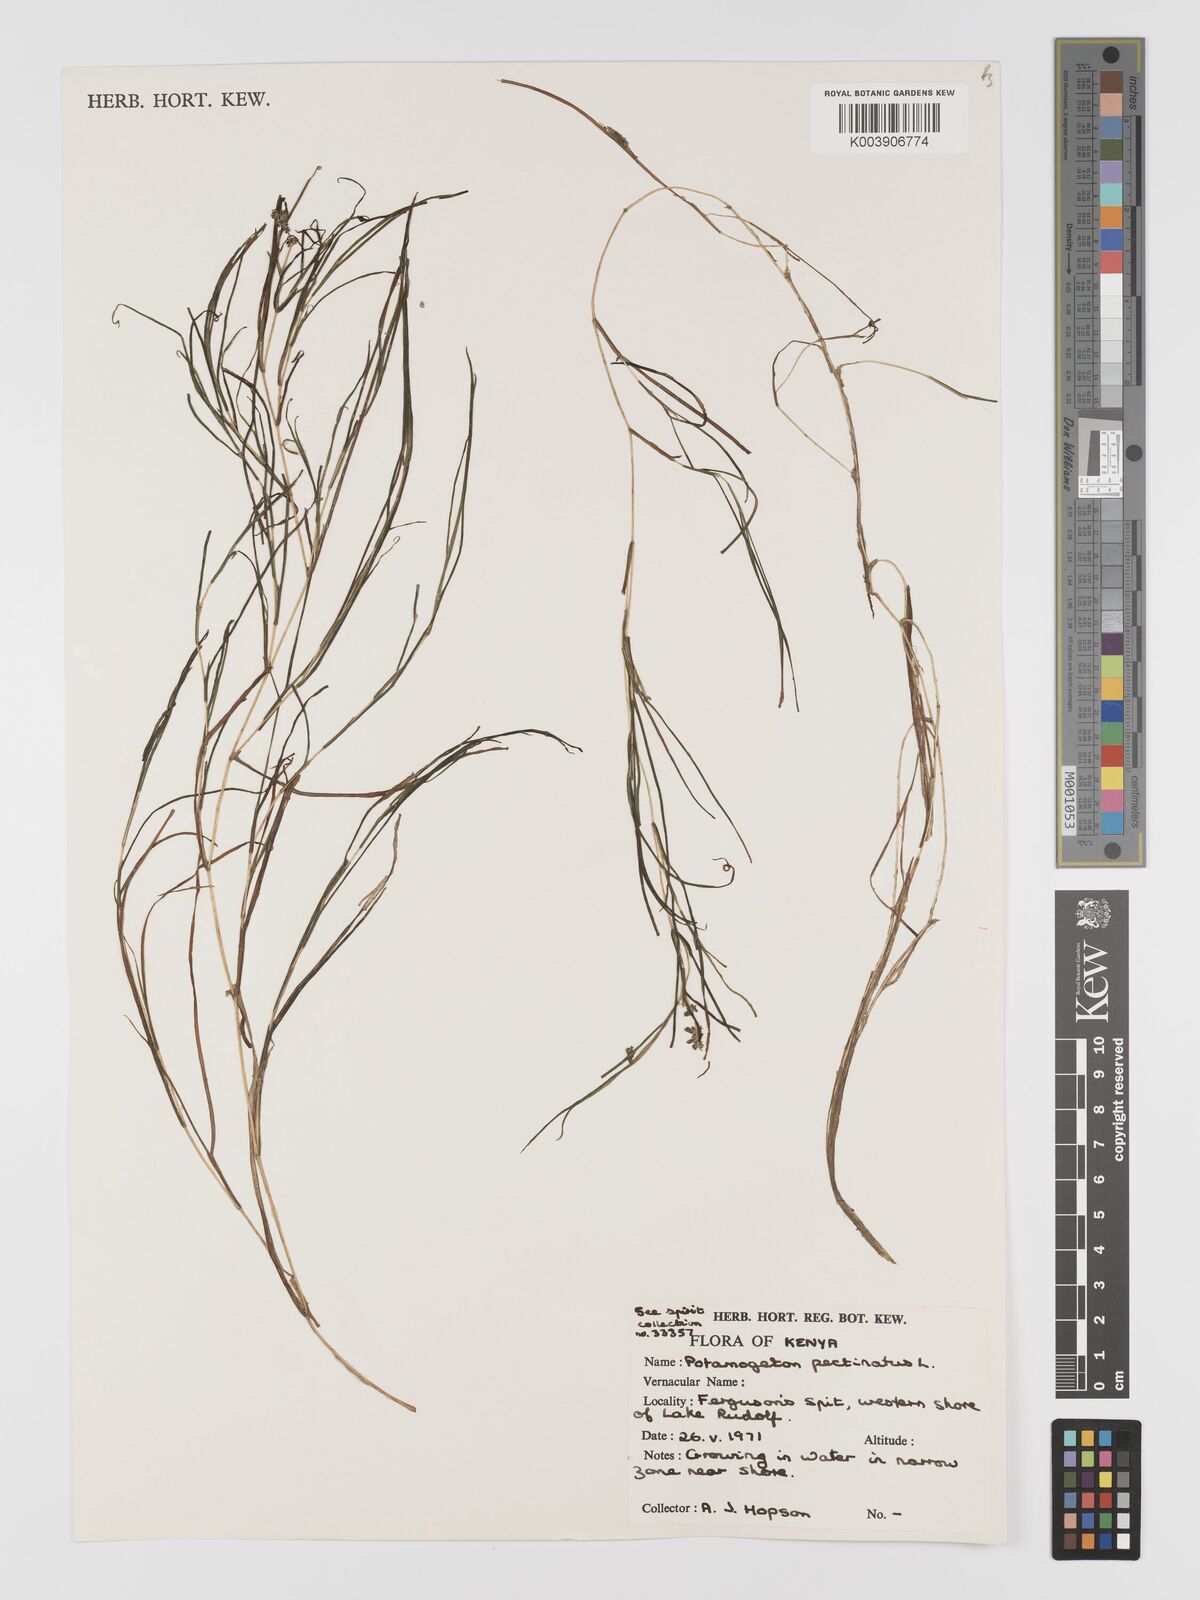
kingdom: Plantae
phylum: Tracheophyta
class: Liliopsida
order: Alismatales
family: Potamogetonaceae
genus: Stuckenia
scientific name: Stuckenia pectinata
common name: Sago pondweed
